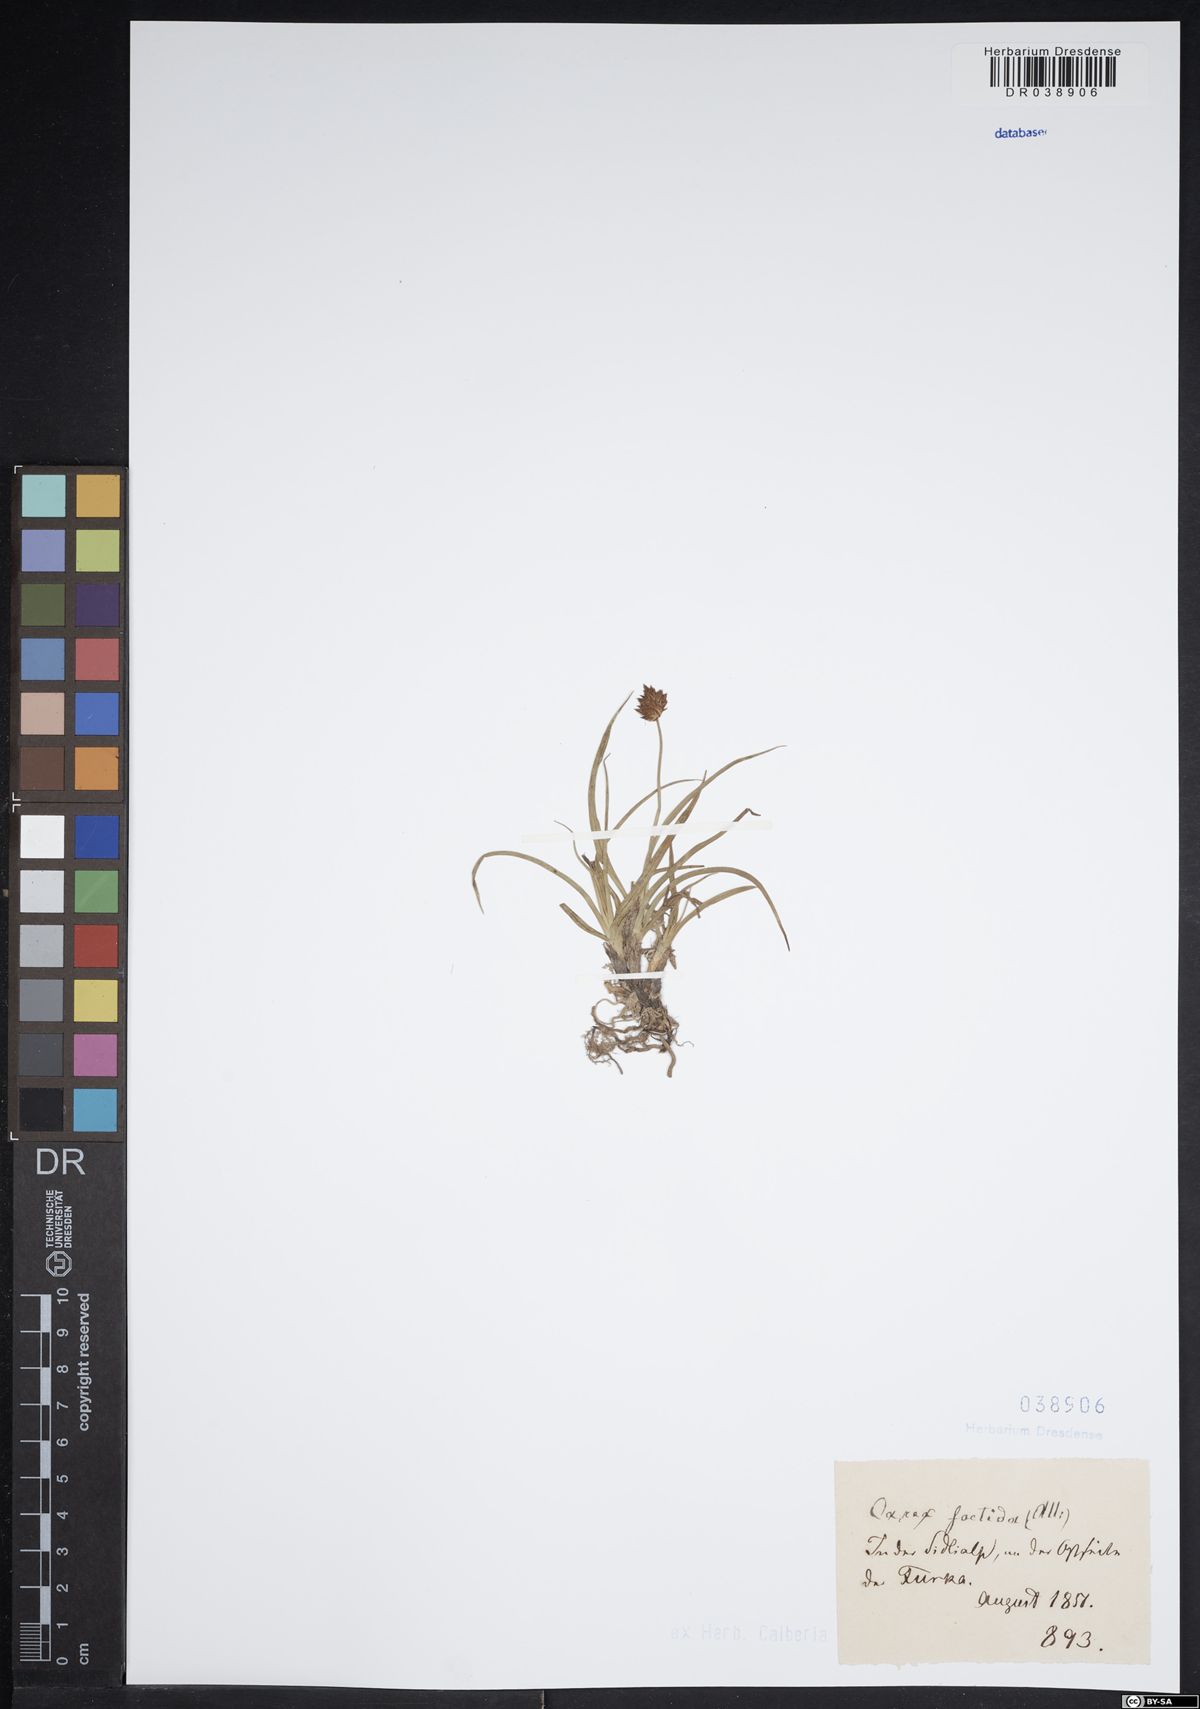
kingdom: Plantae
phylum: Tracheophyta
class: Liliopsida
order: Poales
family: Cyperaceae
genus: Carex
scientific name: Carex foetida
